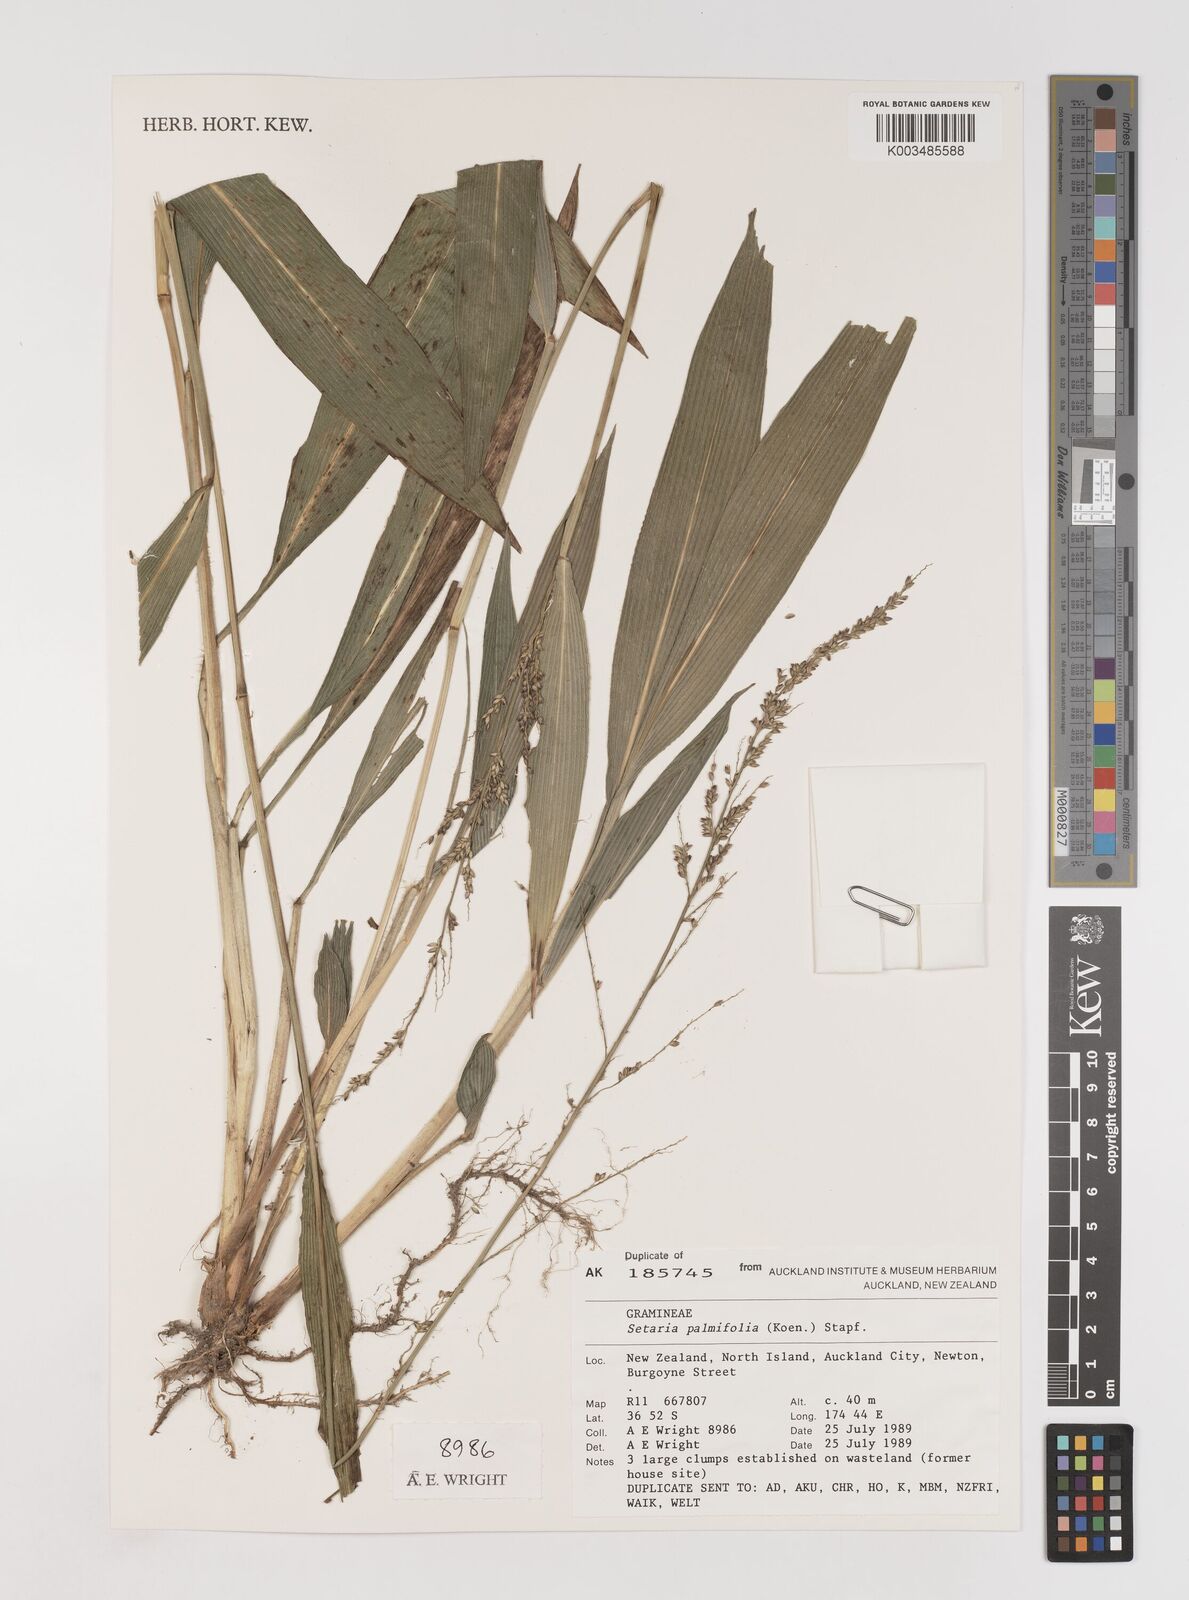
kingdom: Plantae
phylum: Tracheophyta
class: Liliopsida
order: Poales
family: Poaceae
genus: Setaria
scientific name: Setaria palmifolia
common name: Broadleaved bristlegrass
